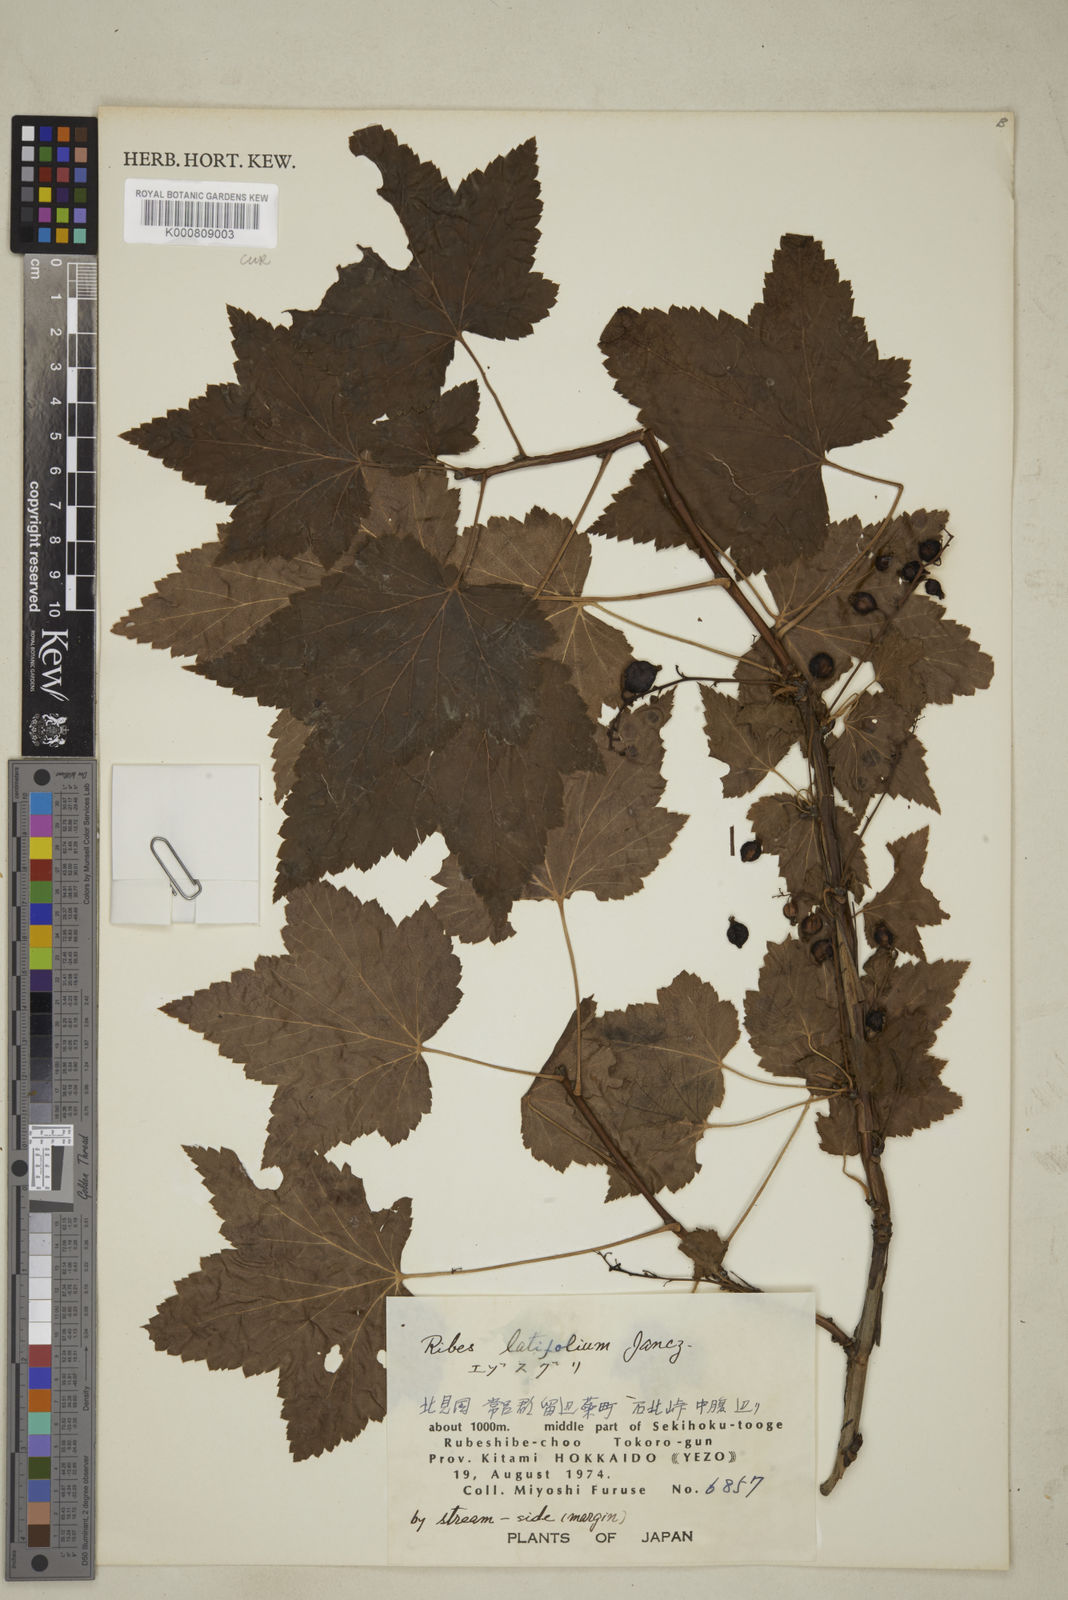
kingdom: Plantae
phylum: Tracheophyta
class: Magnoliopsida
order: Saxifragales
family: Grossulariaceae
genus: Ribes
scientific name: Ribes latifolium
